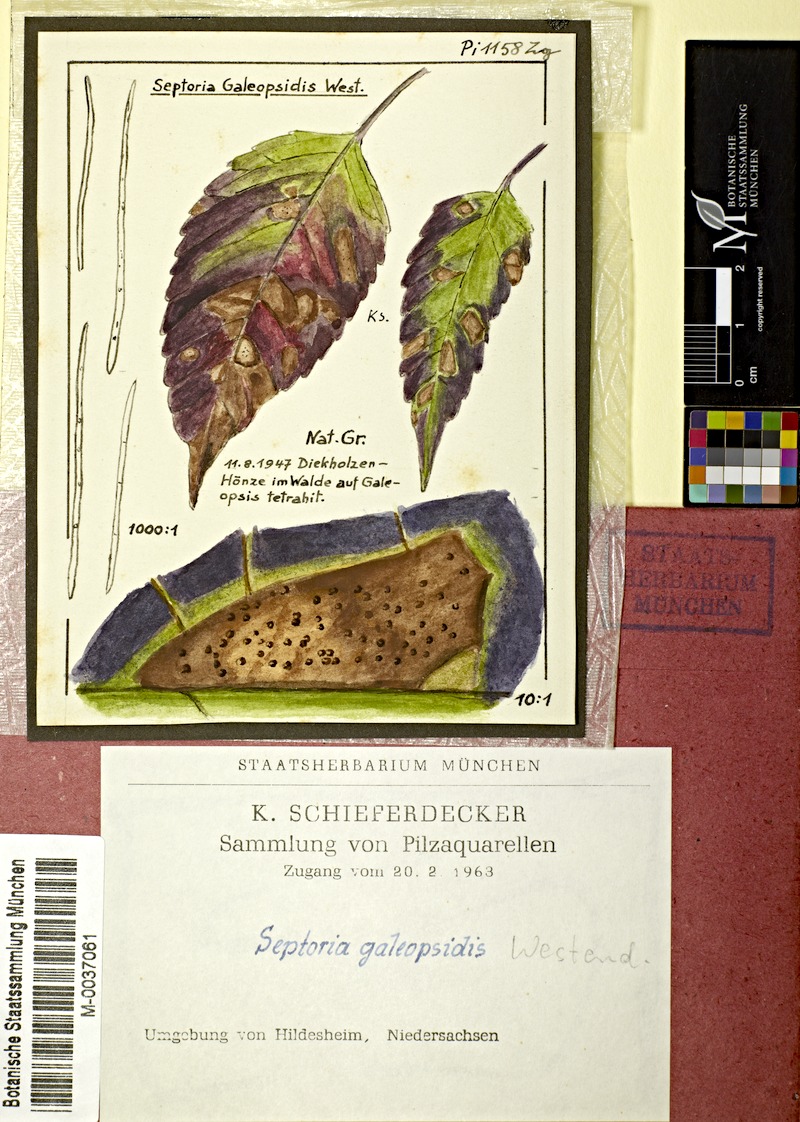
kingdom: Fungi
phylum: Ascomycota
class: Dothideomycetes
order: Mycosphaerellales
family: Mycosphaerellaceae
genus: Septoria
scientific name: Septoria galeopsidis
